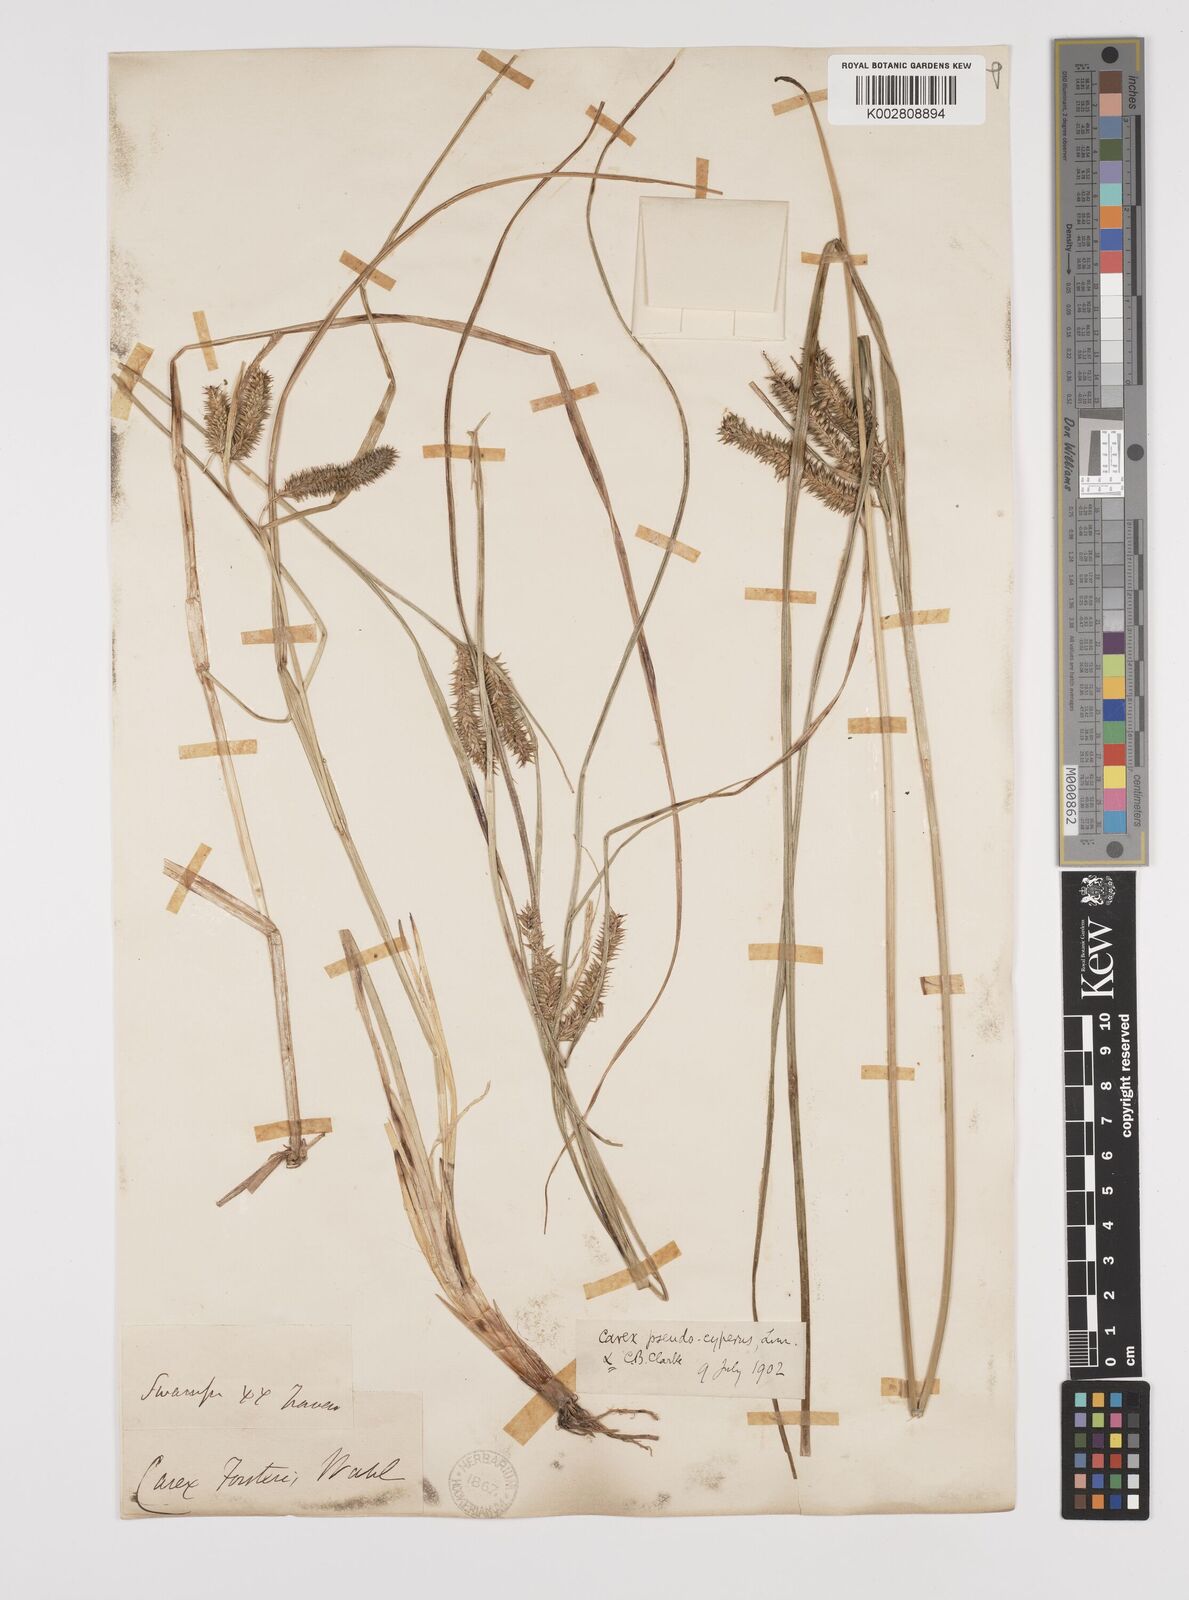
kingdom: Plantae
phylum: Tracheophyta
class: Liliopsida
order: Poales
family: Cyperaceae
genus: Carex
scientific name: Carex fascicularis
